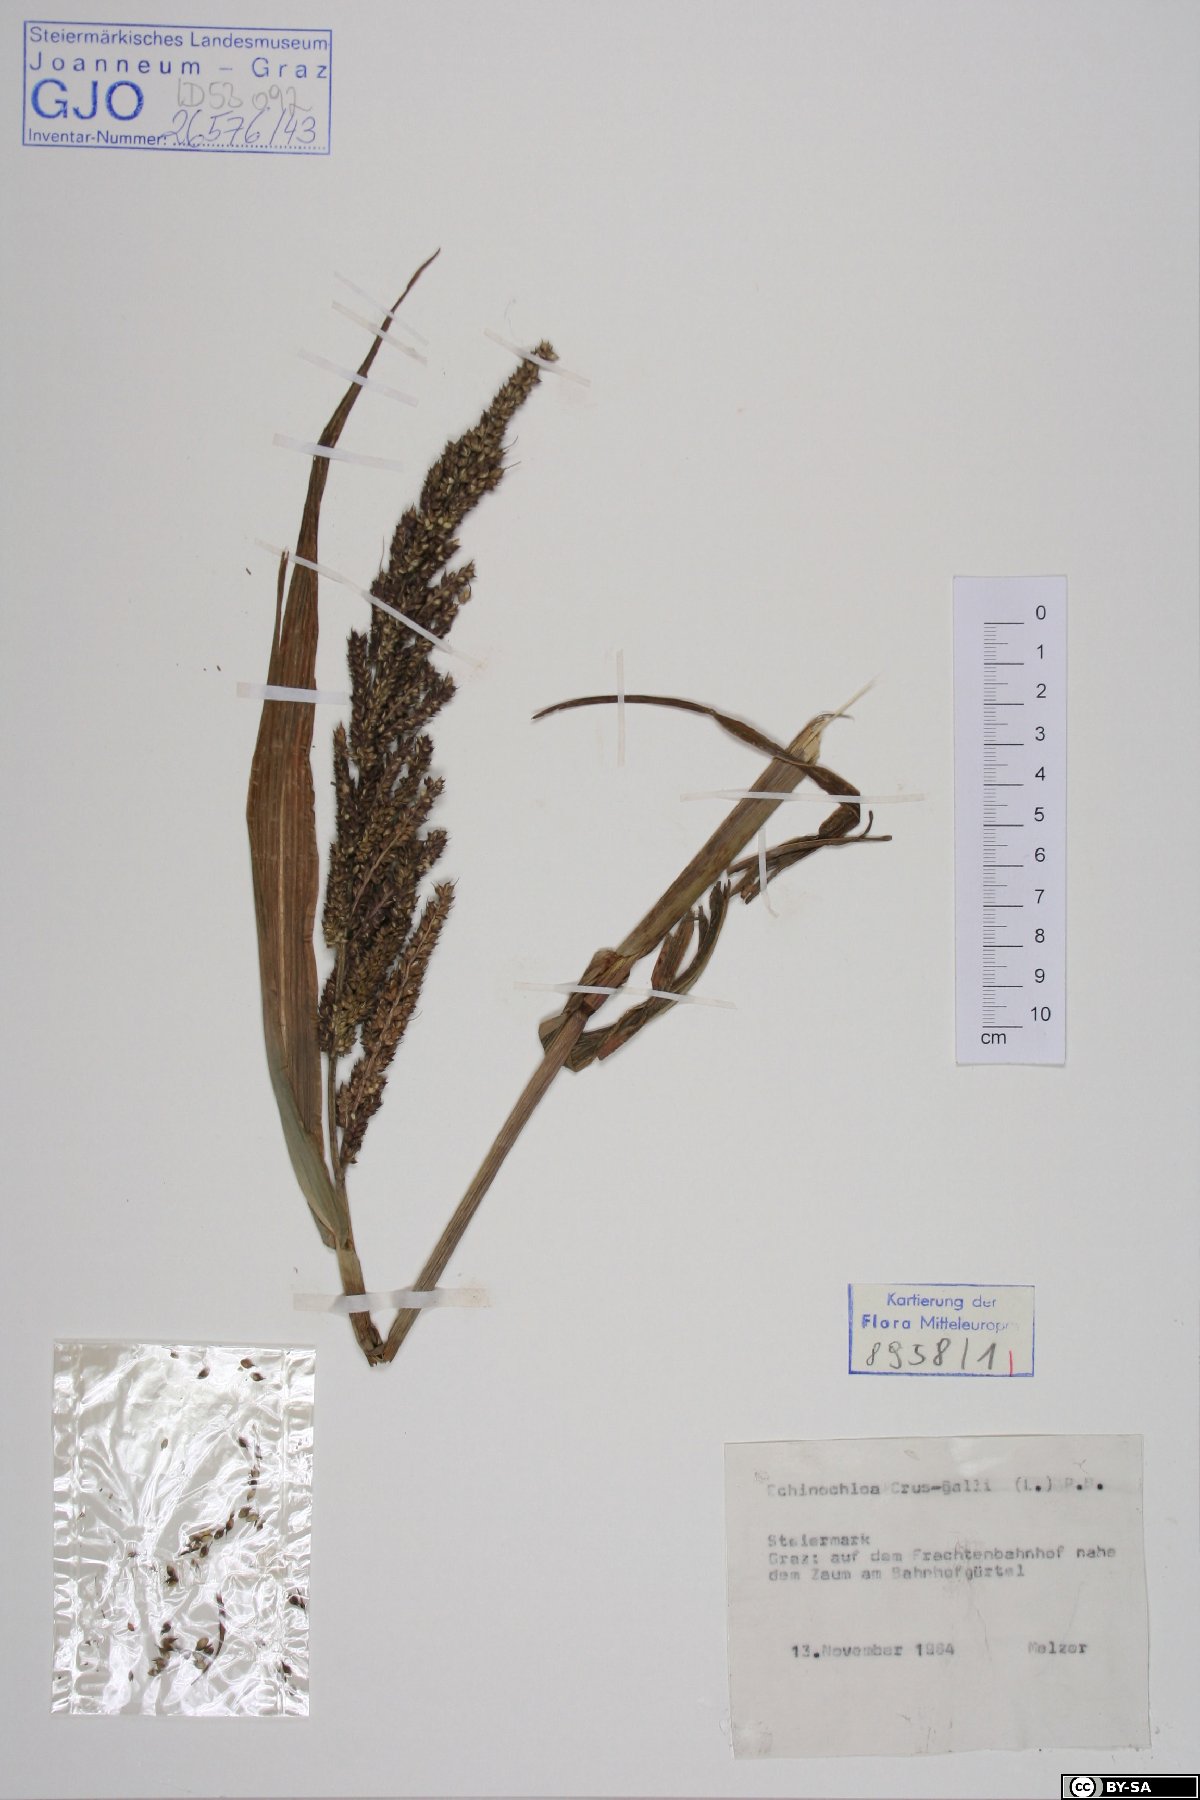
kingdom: Plantae
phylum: Tracheophyta
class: Liliopsida
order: Poales
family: Poaceae
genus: Echinochloa
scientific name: Echinochloa crus-galli
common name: Cockspur
